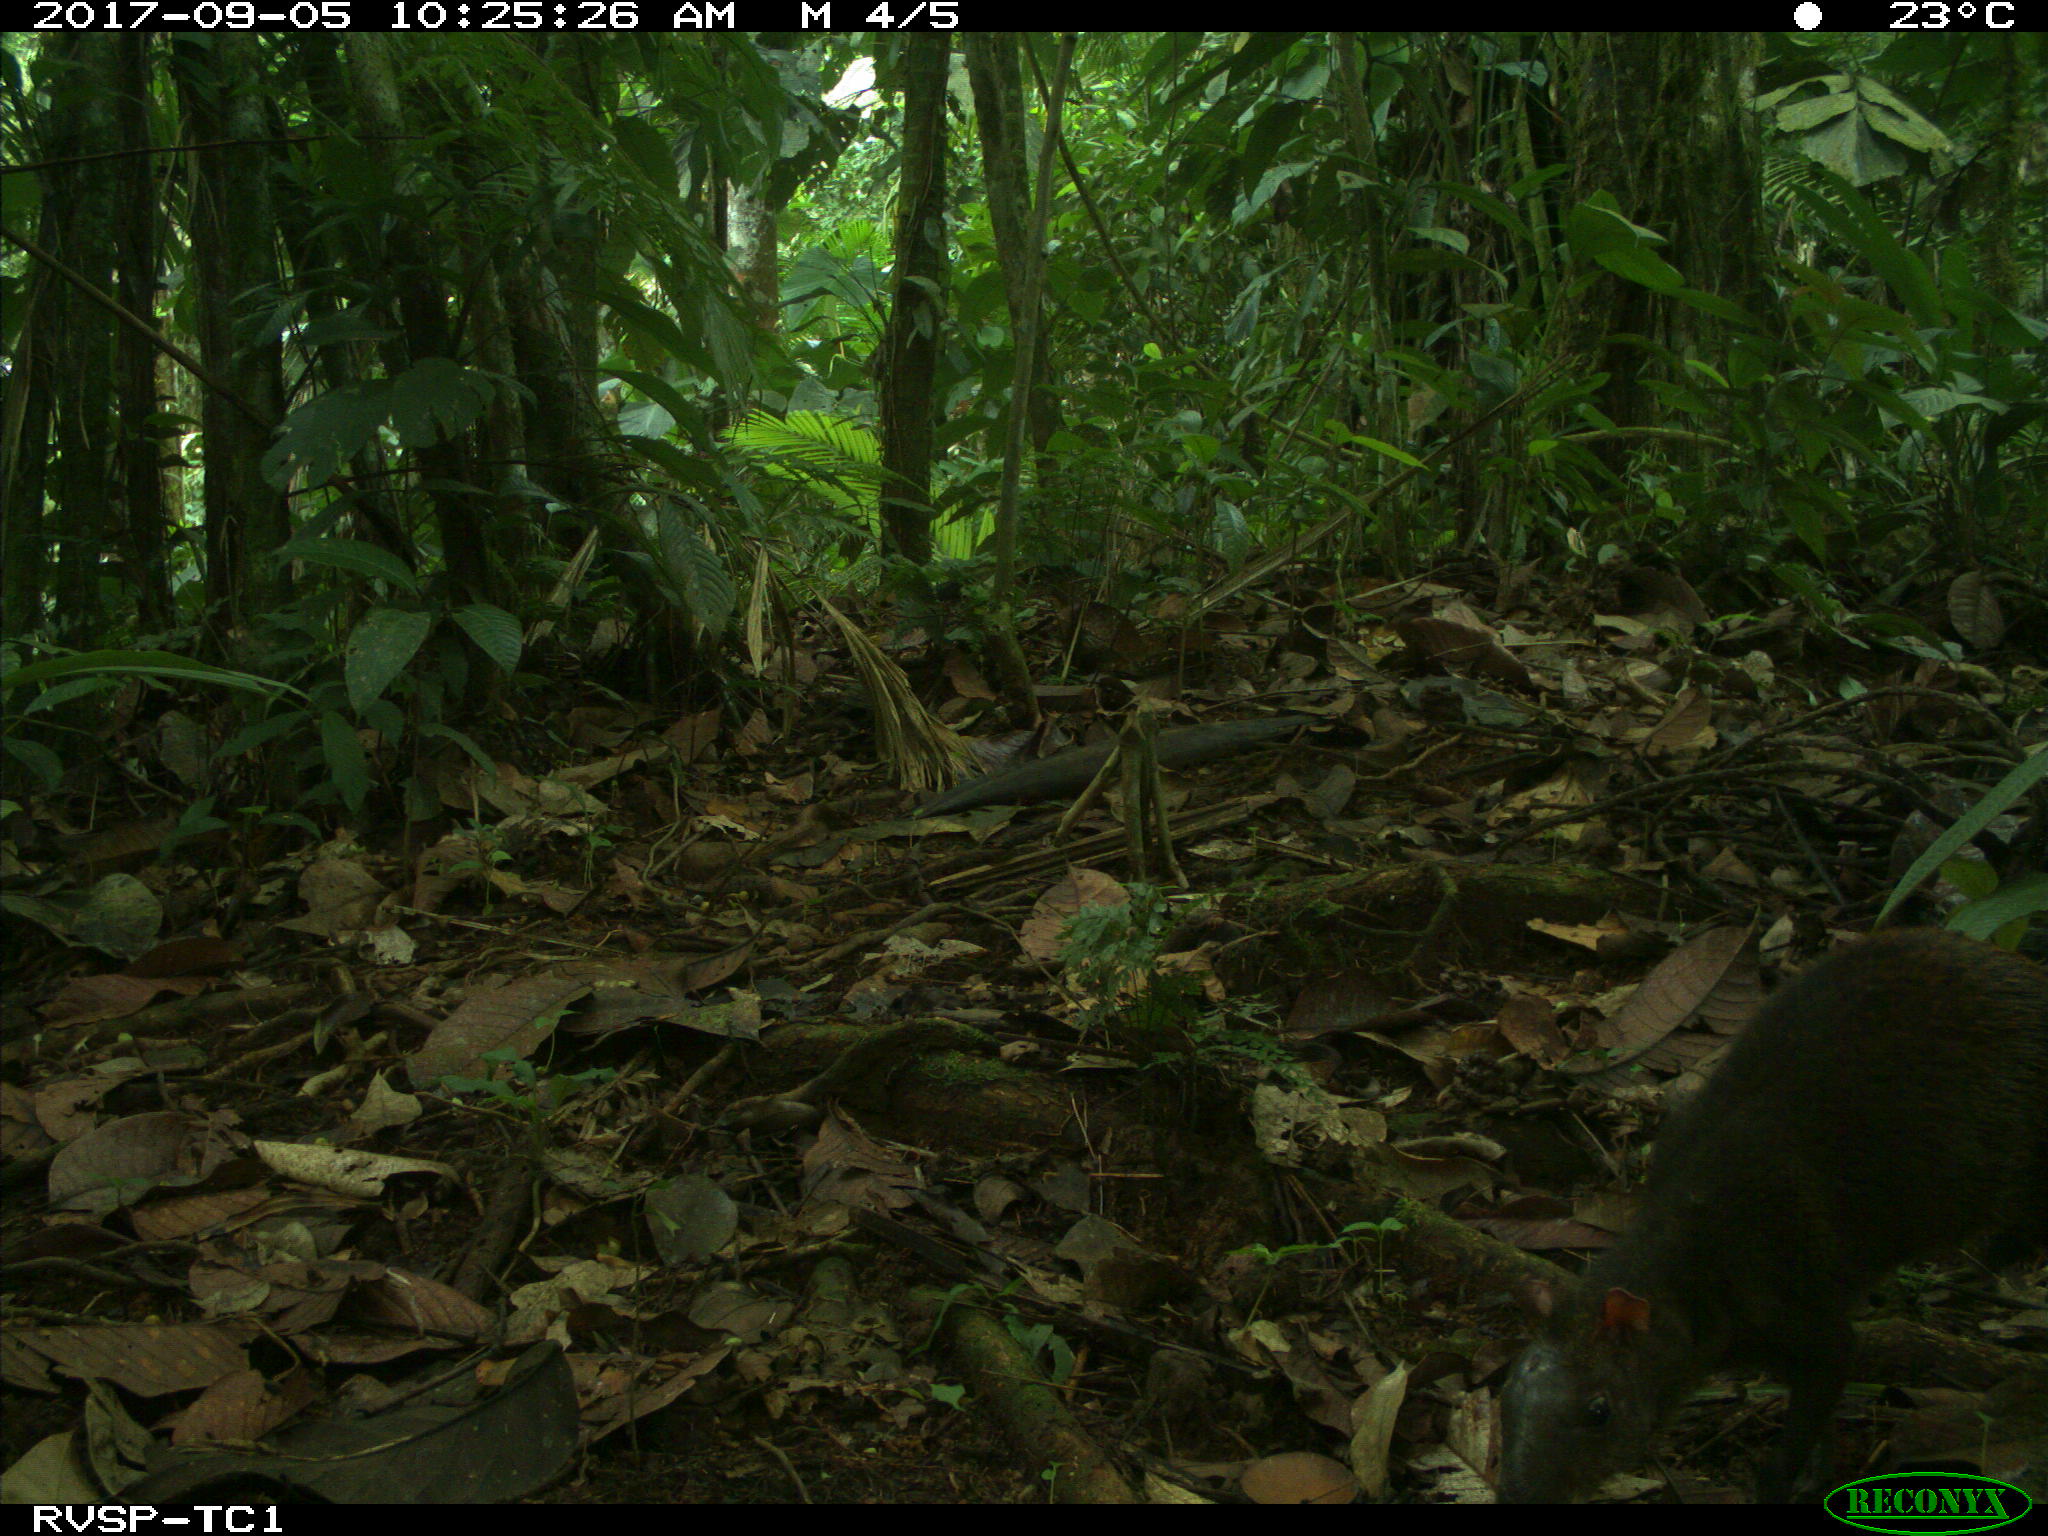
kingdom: Animalia
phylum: Chordata
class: Mammalia
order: Rodentia
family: Dasyproctidae
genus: Dasyprocta
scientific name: Dasyprocta punctata
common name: Central american agouti
